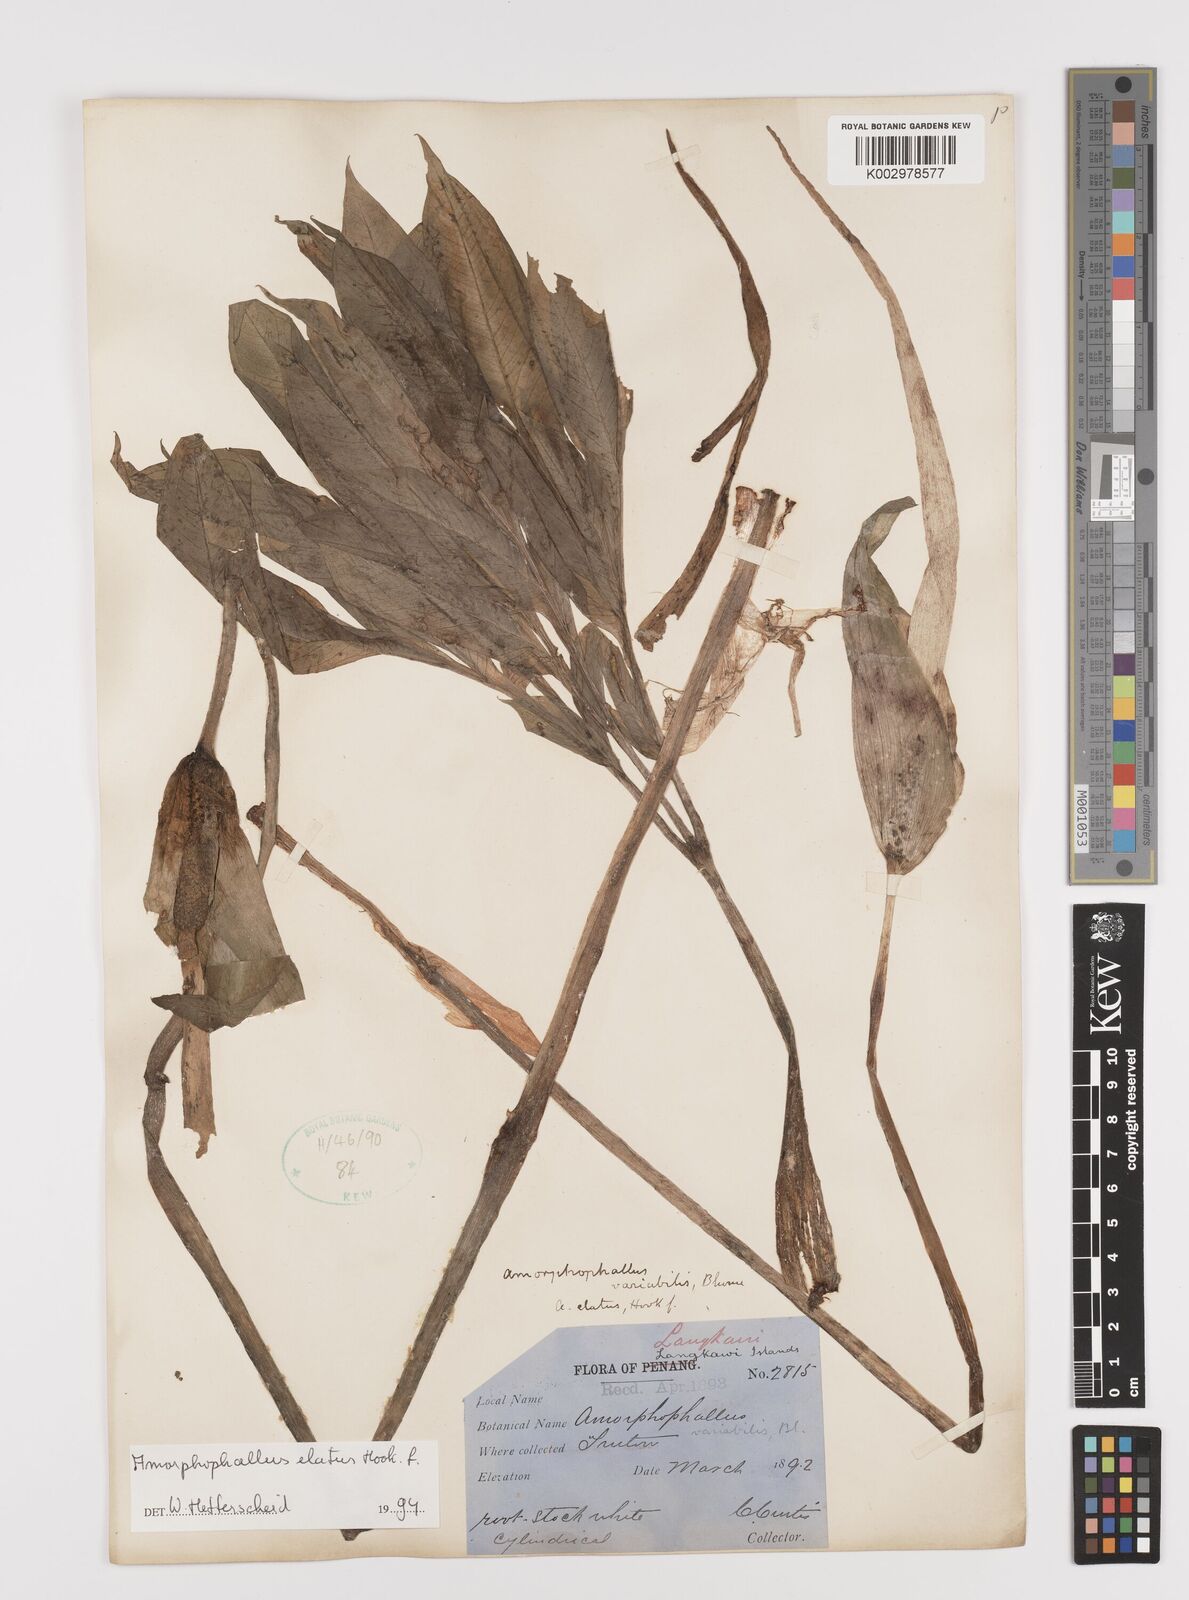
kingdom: Plantae
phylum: Tracheophyta
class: Liliopsida
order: Alismatales
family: Araceae
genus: Amorphophallus
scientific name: Amorphophallus elatus
